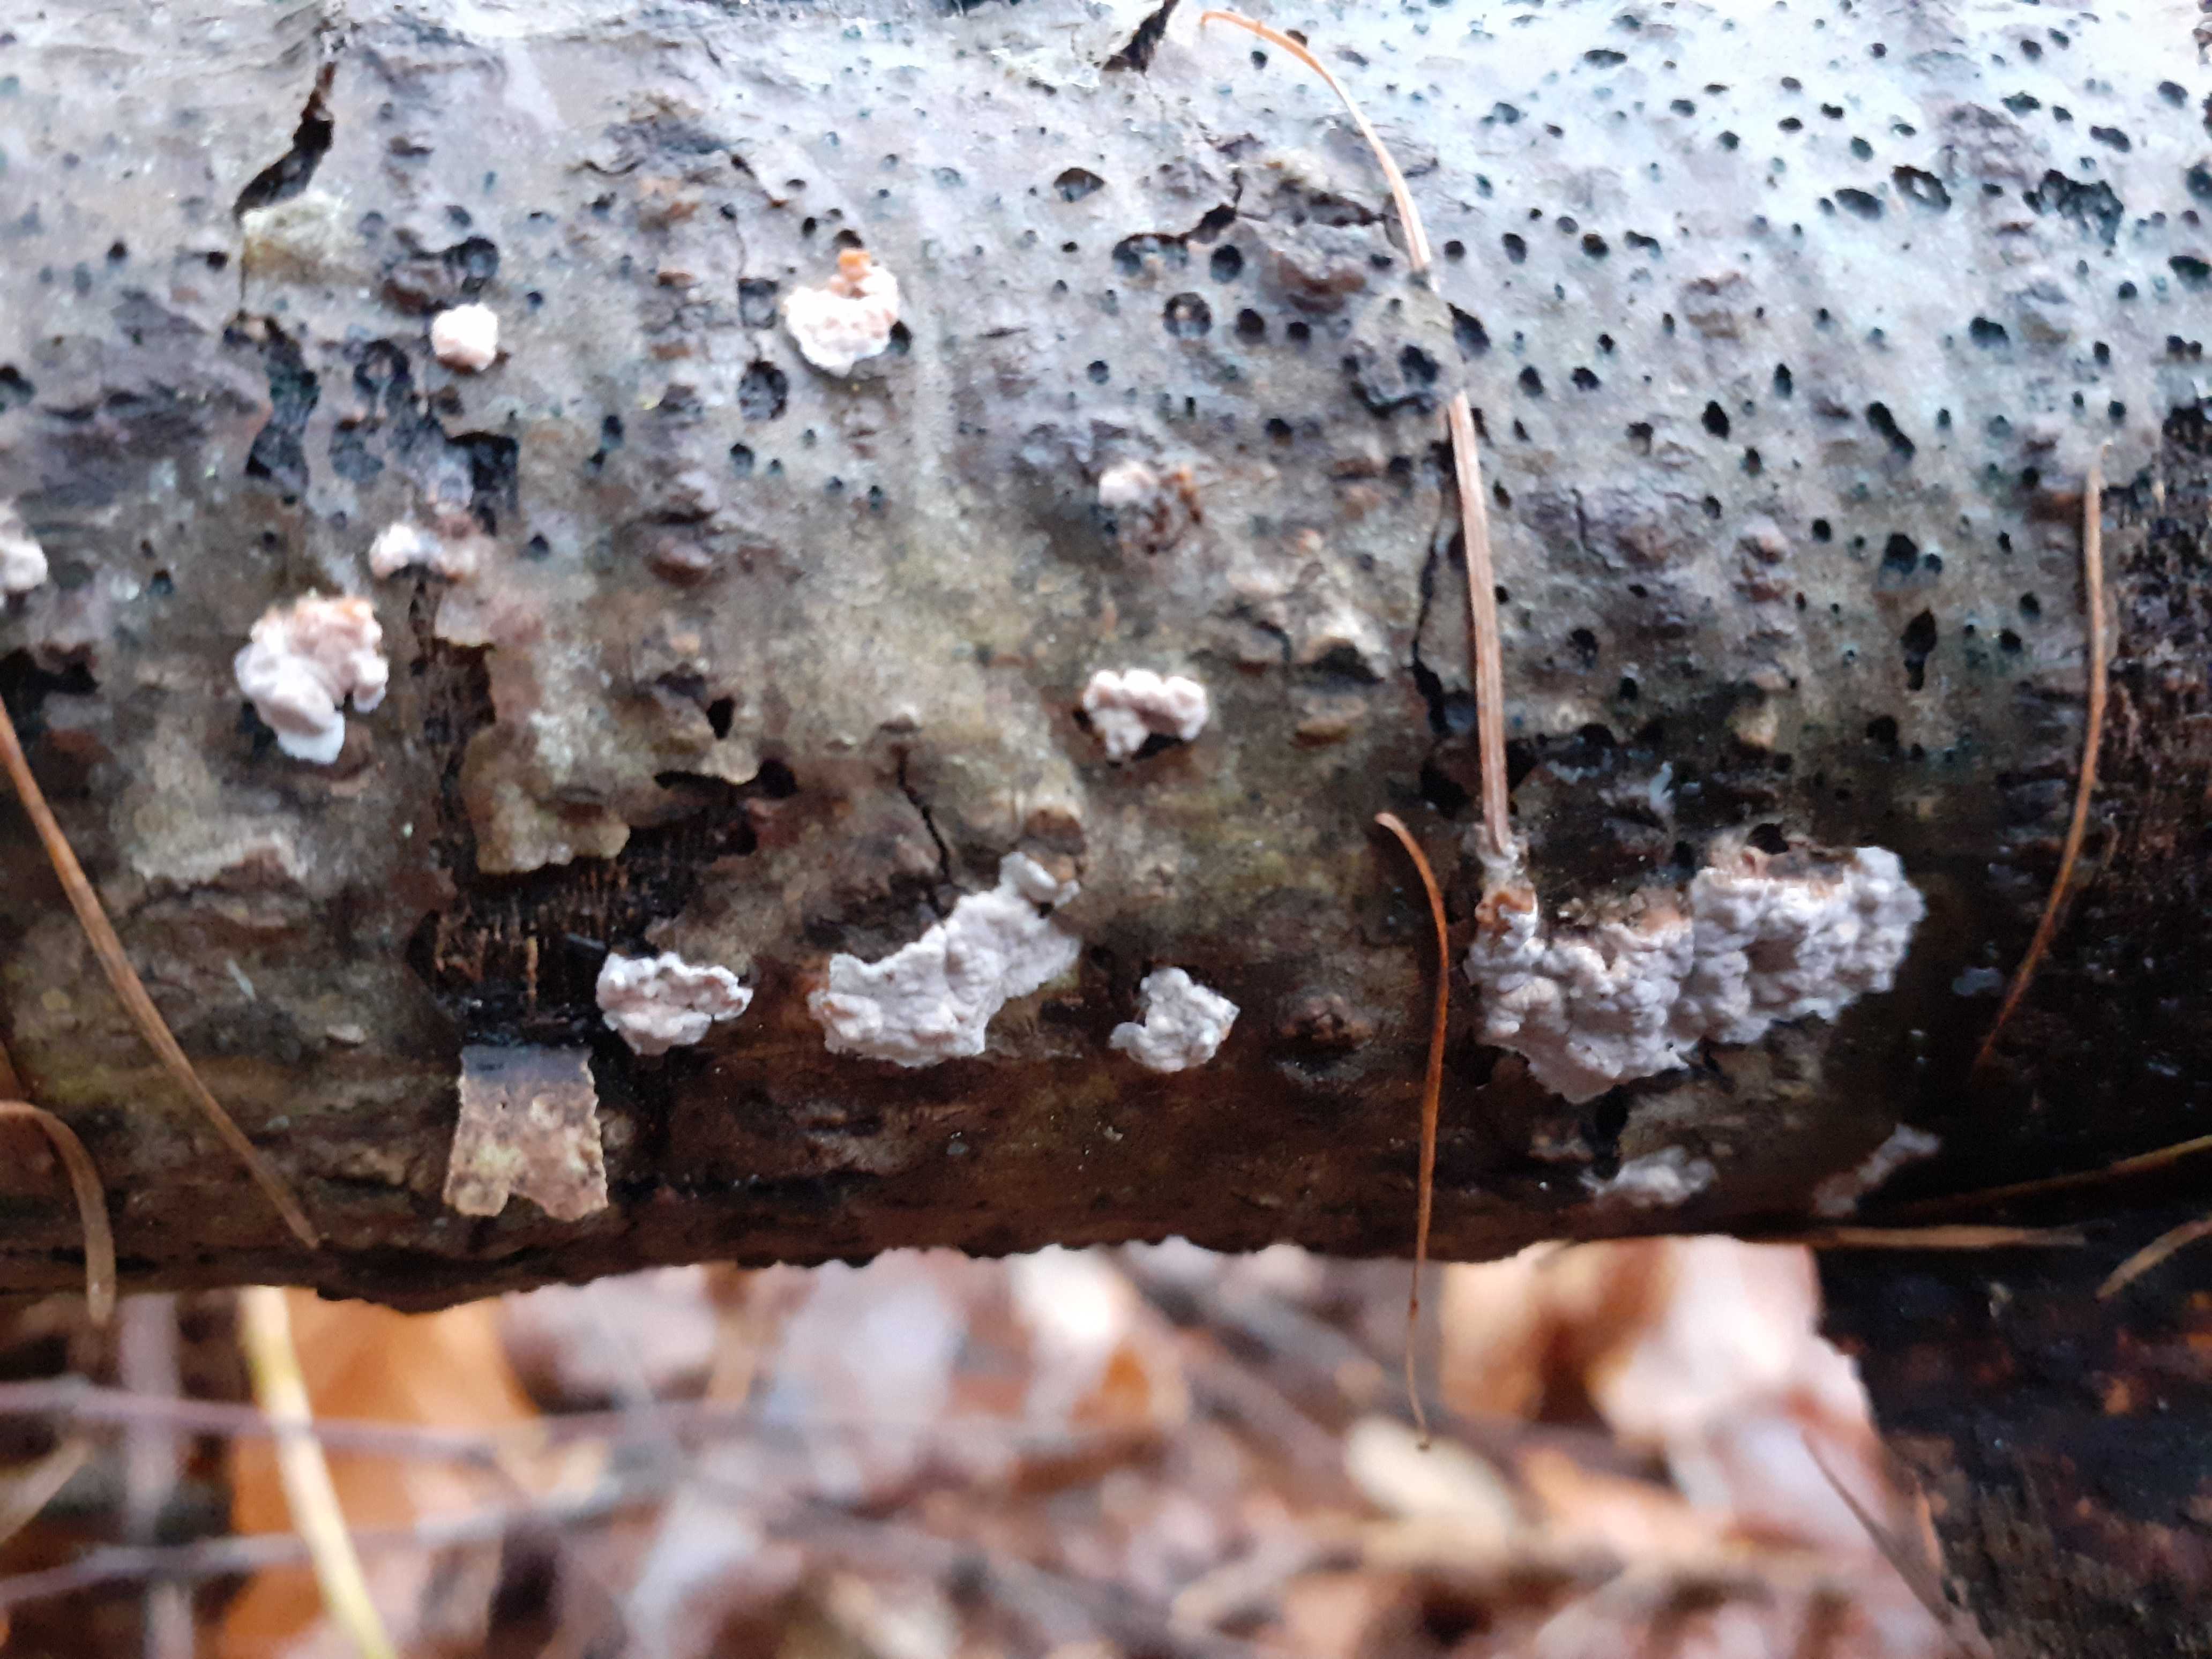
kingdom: Fungi
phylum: Basidiomycota
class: Agaricomycetes
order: Russulales
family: Peniophoraceae
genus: Peniophora
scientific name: Peniophora polygonia
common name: polygon-voksskind
